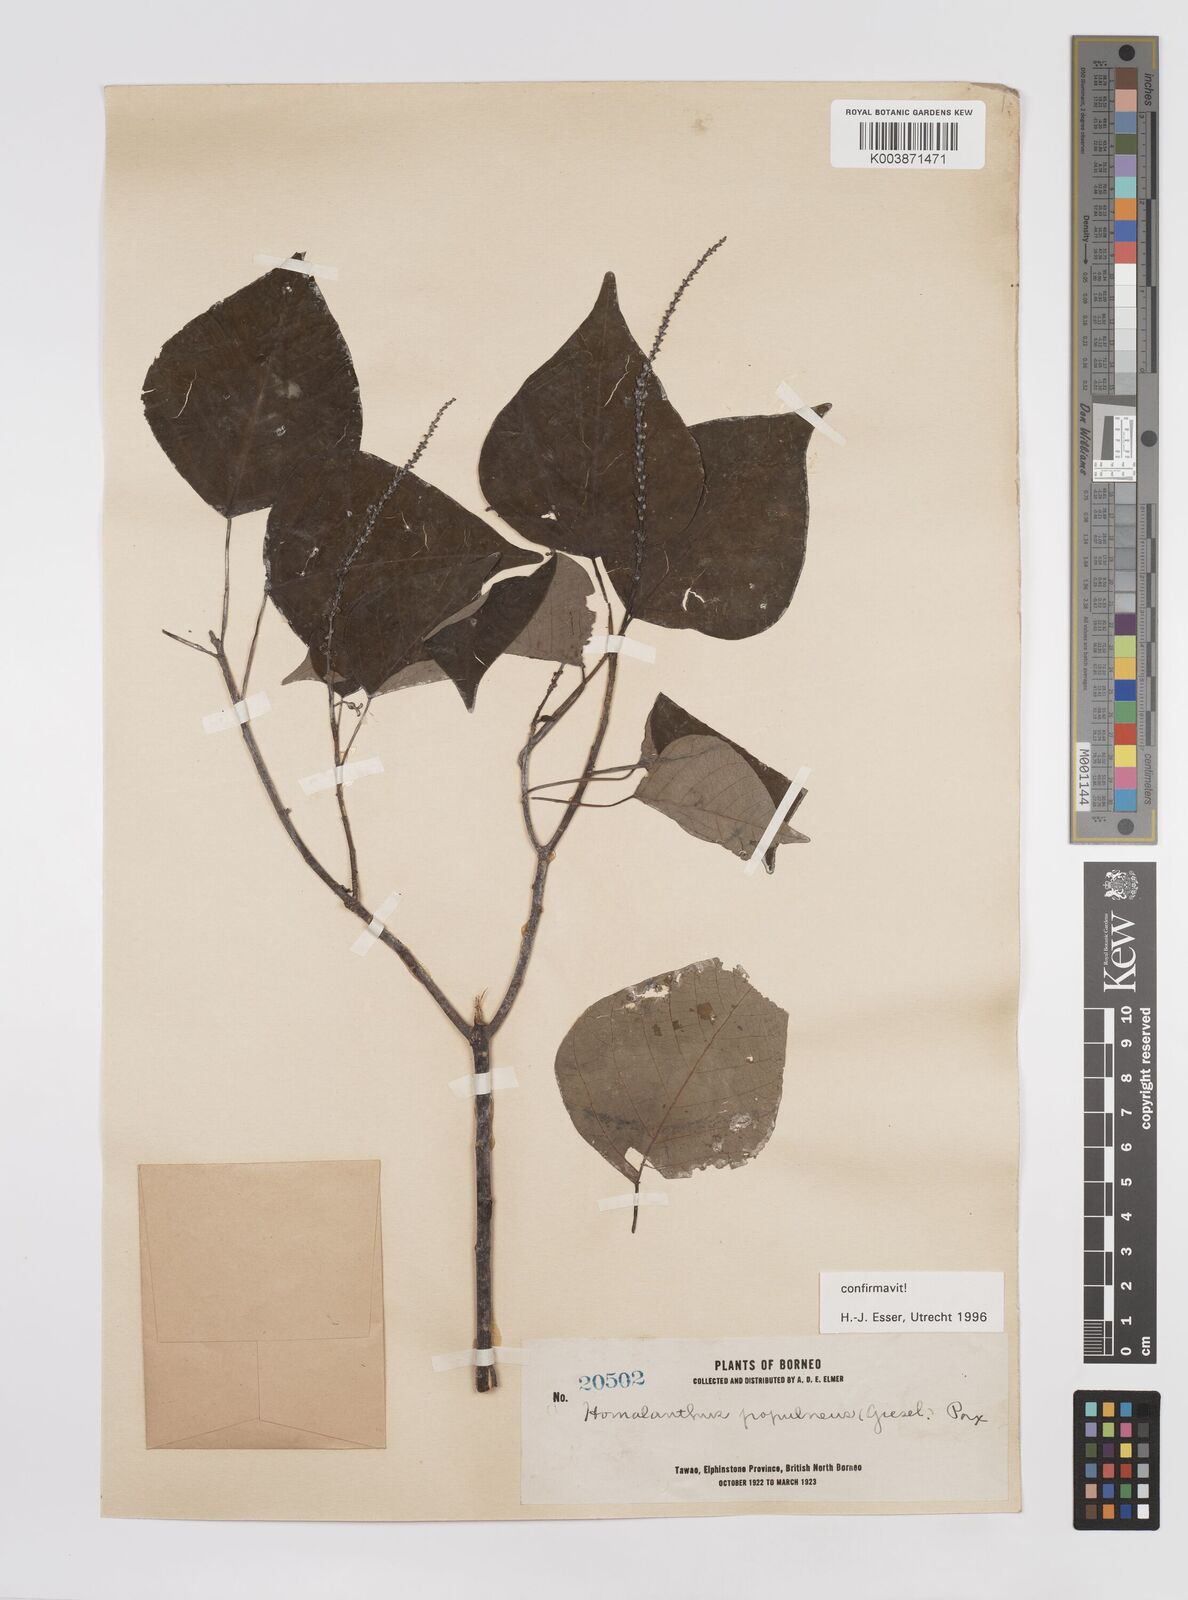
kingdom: Plantae
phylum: Tracheophyta
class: Magnoliopsida
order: Malpighiales
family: Euphorbiaceae
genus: Homalanthus
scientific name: Homalanthus populneus
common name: Spurge
